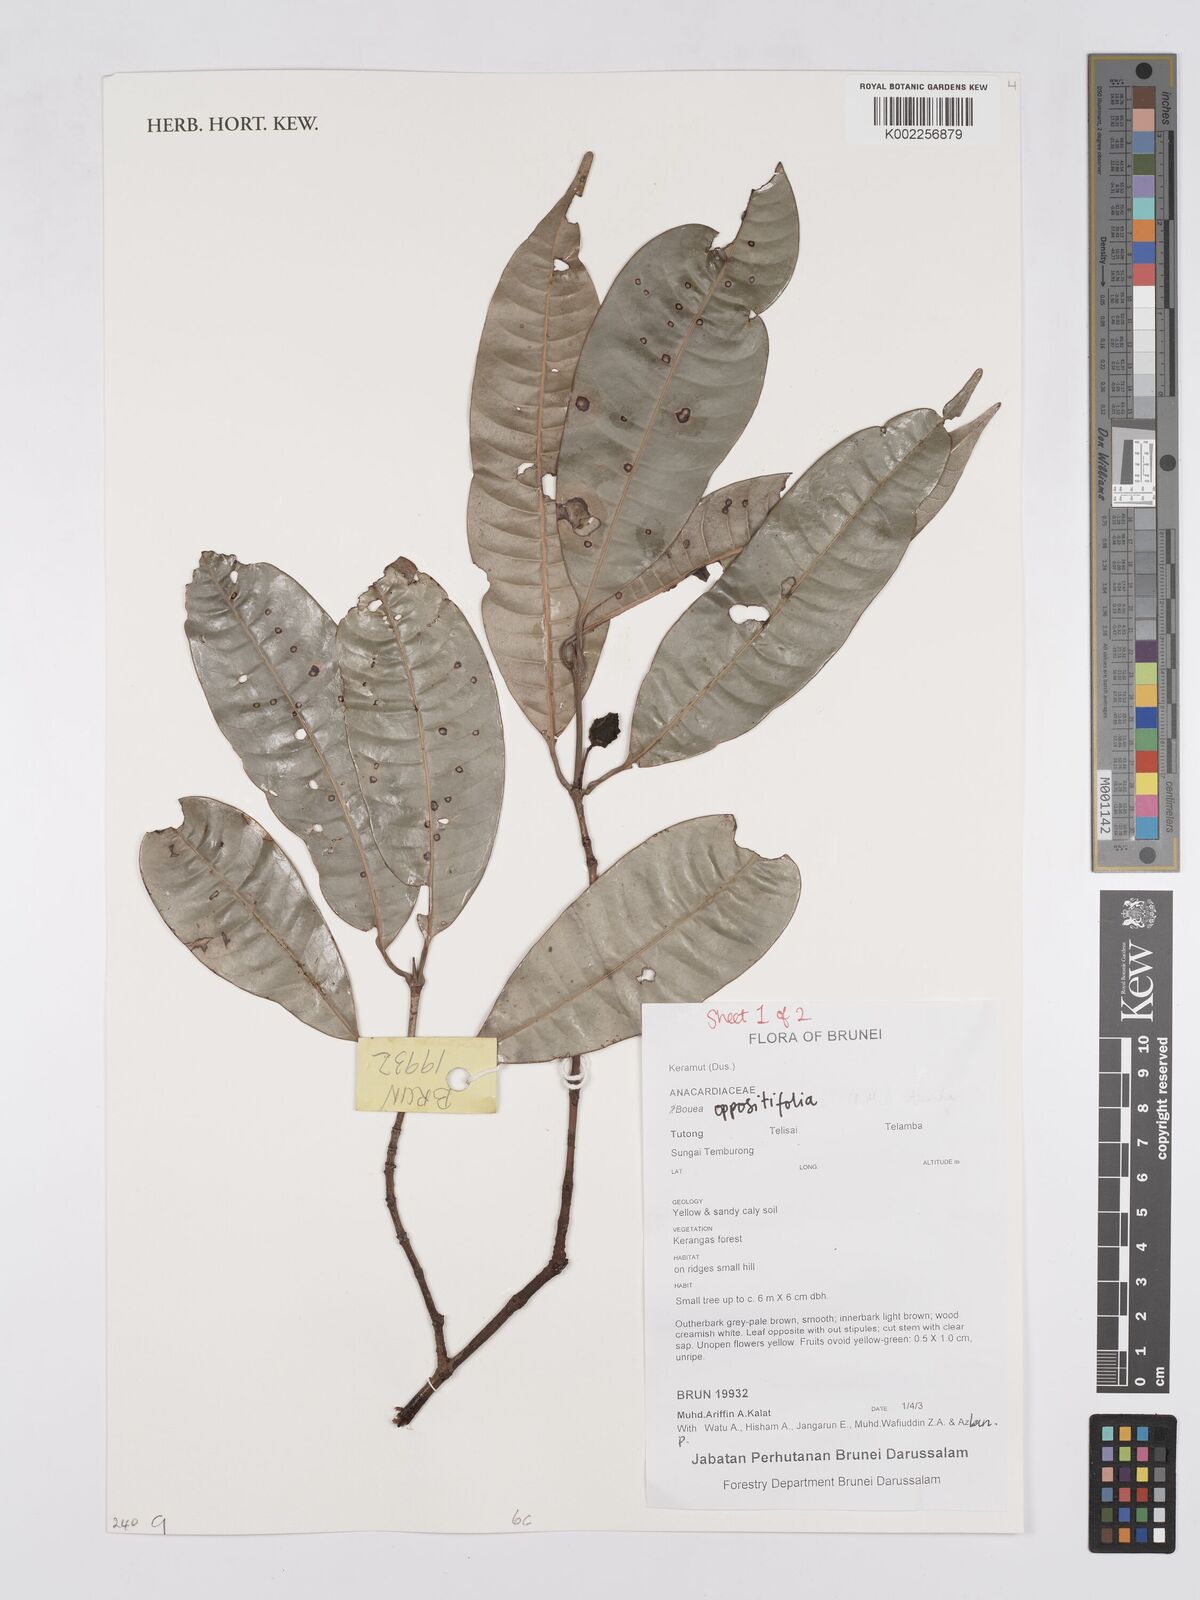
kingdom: Plantae
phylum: Tracheophyta
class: Magnoliopsida
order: Sapindales
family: Anacardiaceae
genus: Bouea
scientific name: Bouea oppositifolia
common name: Narrow-leaved kundang
